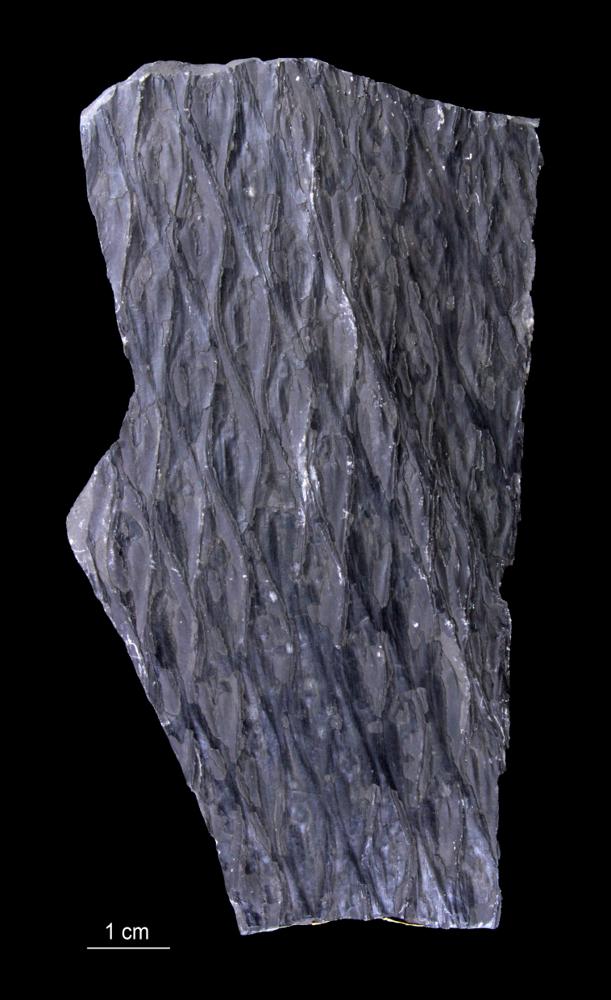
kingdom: Plantae
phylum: Tracheophyta
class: Lycopodiopsida
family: Lepidodendraceae
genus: Lepidodendron
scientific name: Lepidodendron aculeatum
